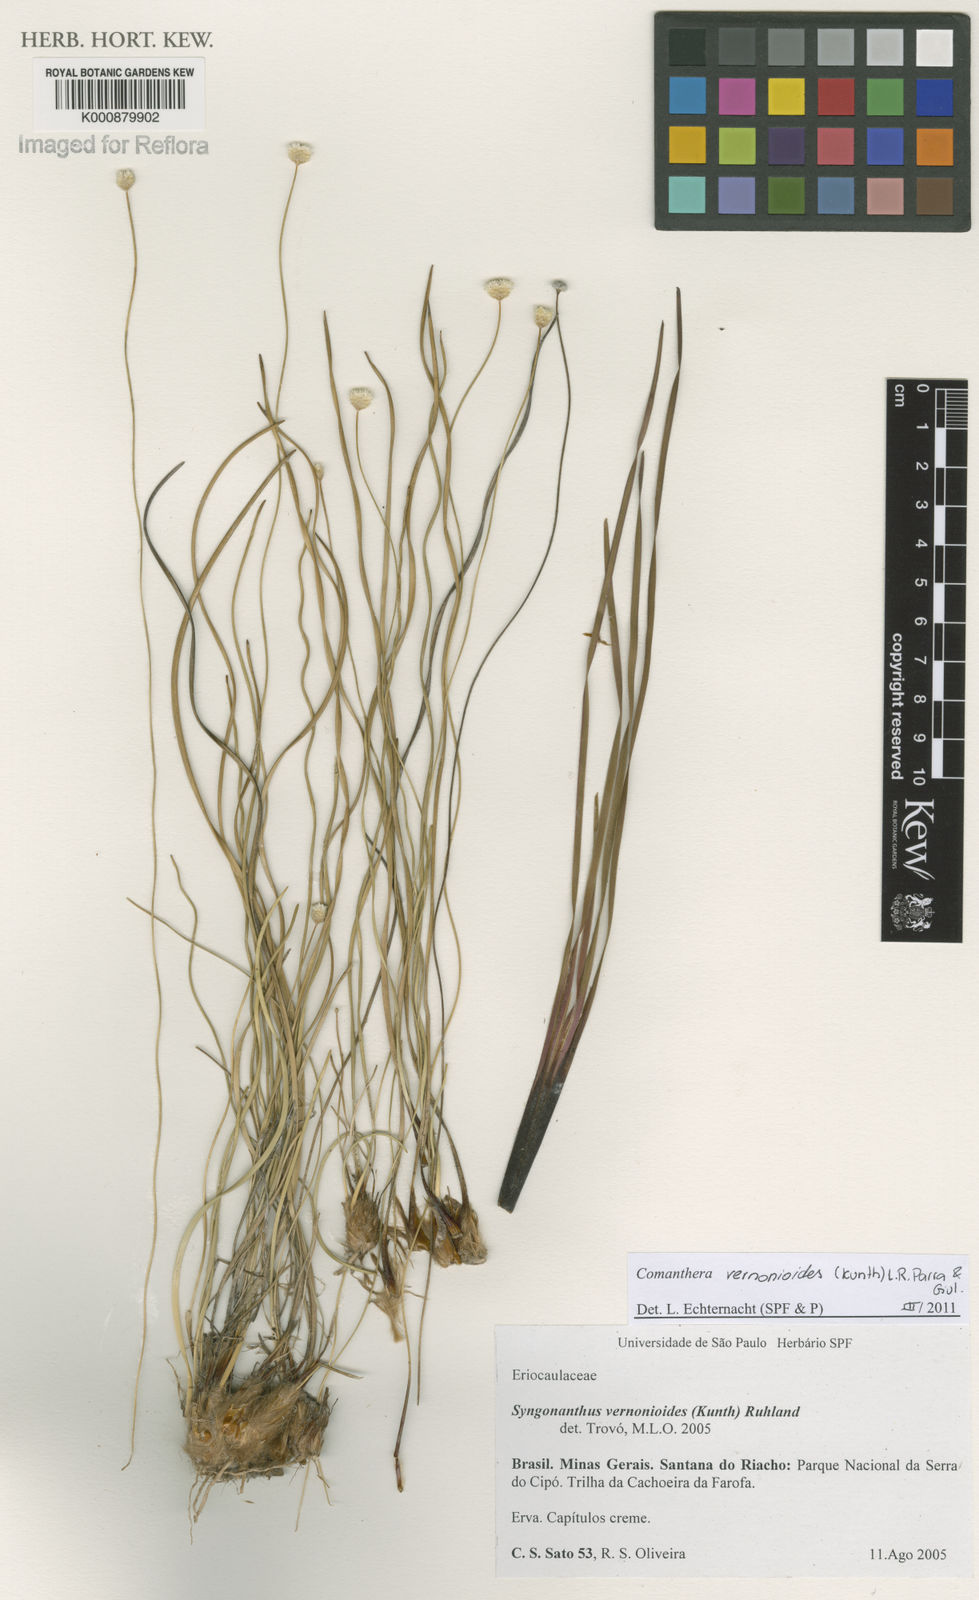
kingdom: Plantae
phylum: Tracheophyta
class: Liliopsida
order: Poales
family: Eriocaulaceae
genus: Comanthera
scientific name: Comanthera centauroides
